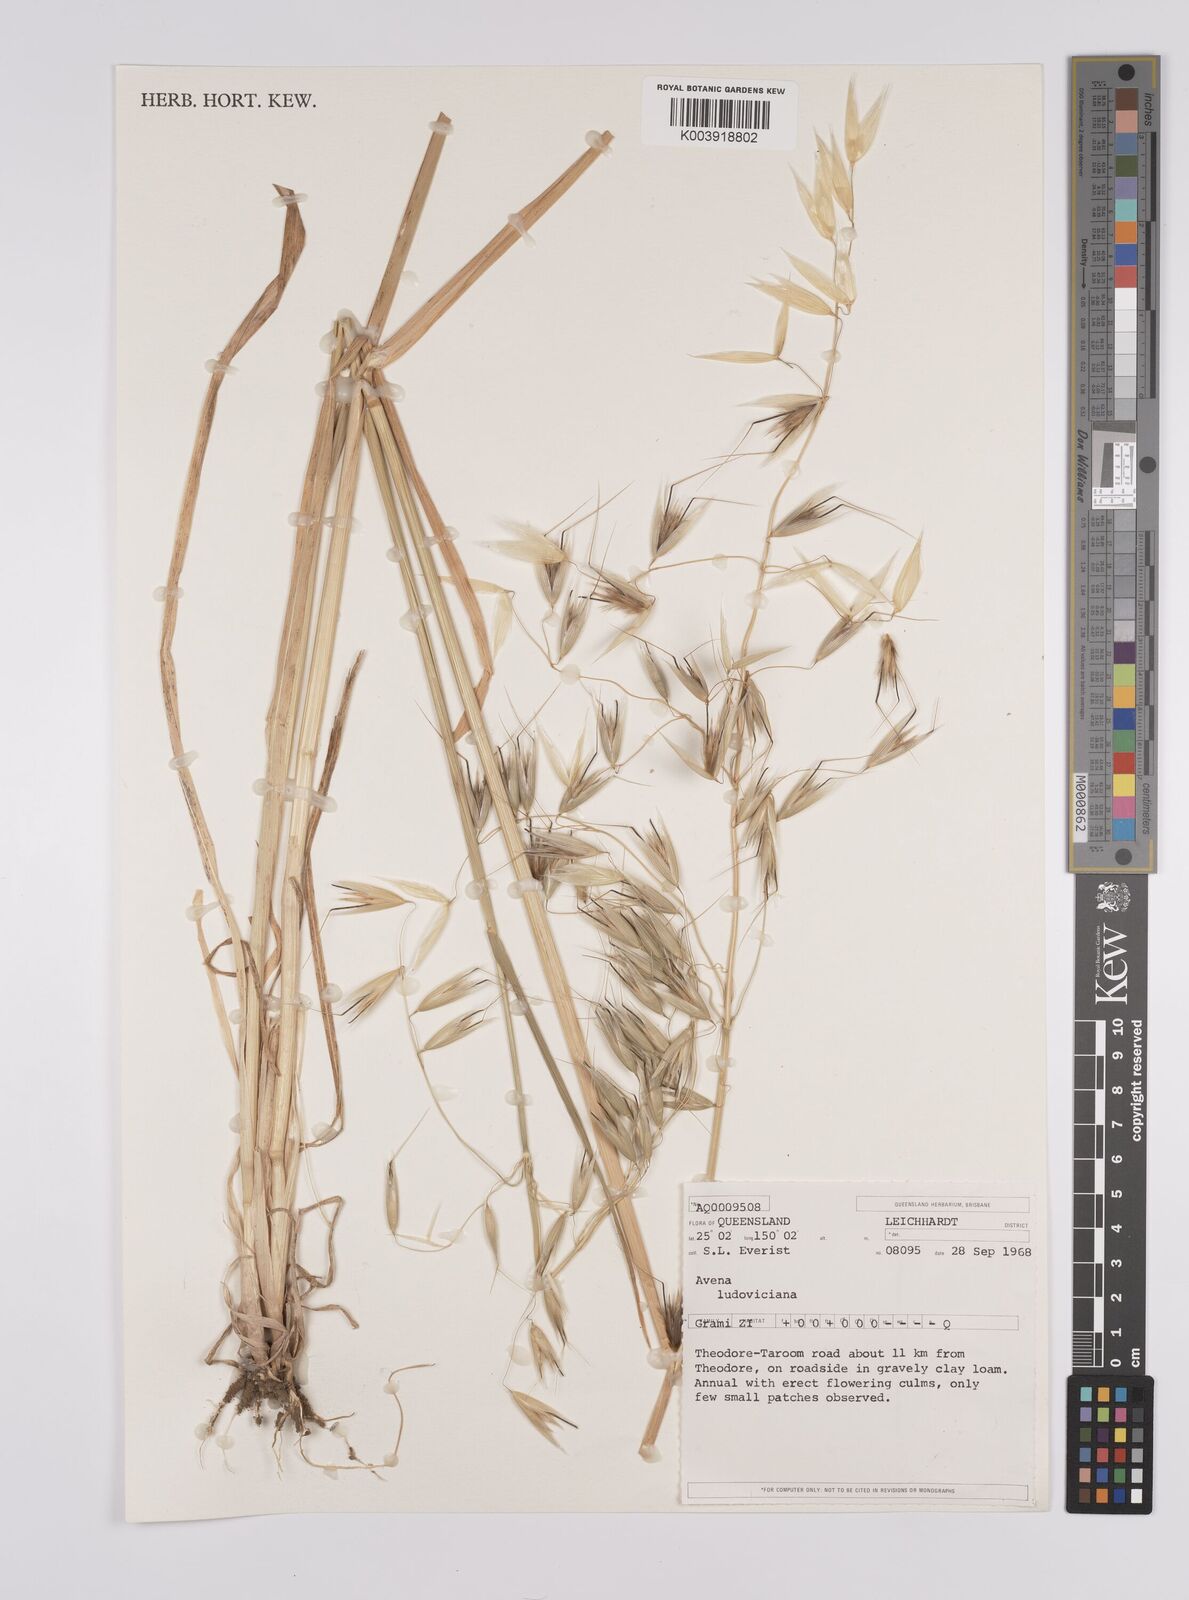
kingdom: Plantae
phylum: Tracheophyta
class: Liliopsida
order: Poales
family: Poaceae
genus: Avena
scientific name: Avena sterilis
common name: Animated oat
